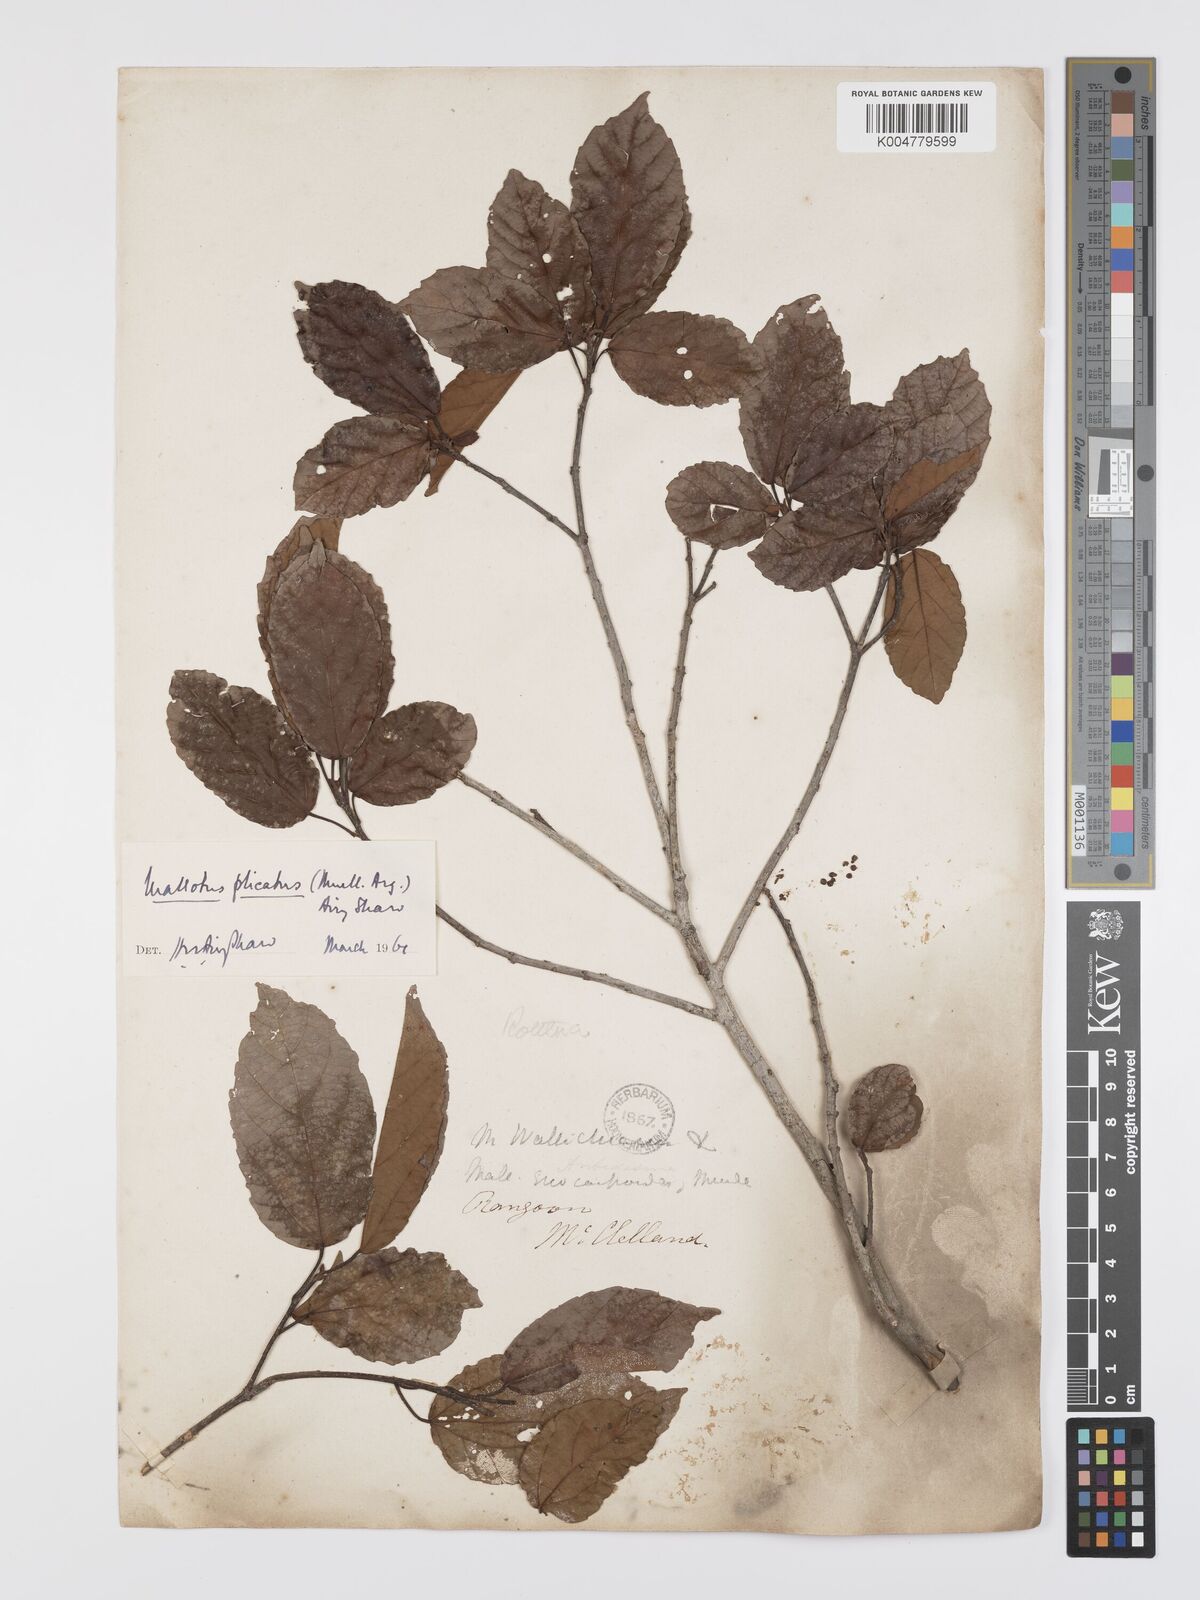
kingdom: Plantae
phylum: Tracheophyta
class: Magnoliopsida
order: Malpighiales
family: Euphorbiaceae
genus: Mallotus
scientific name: Mallotus plicatus
